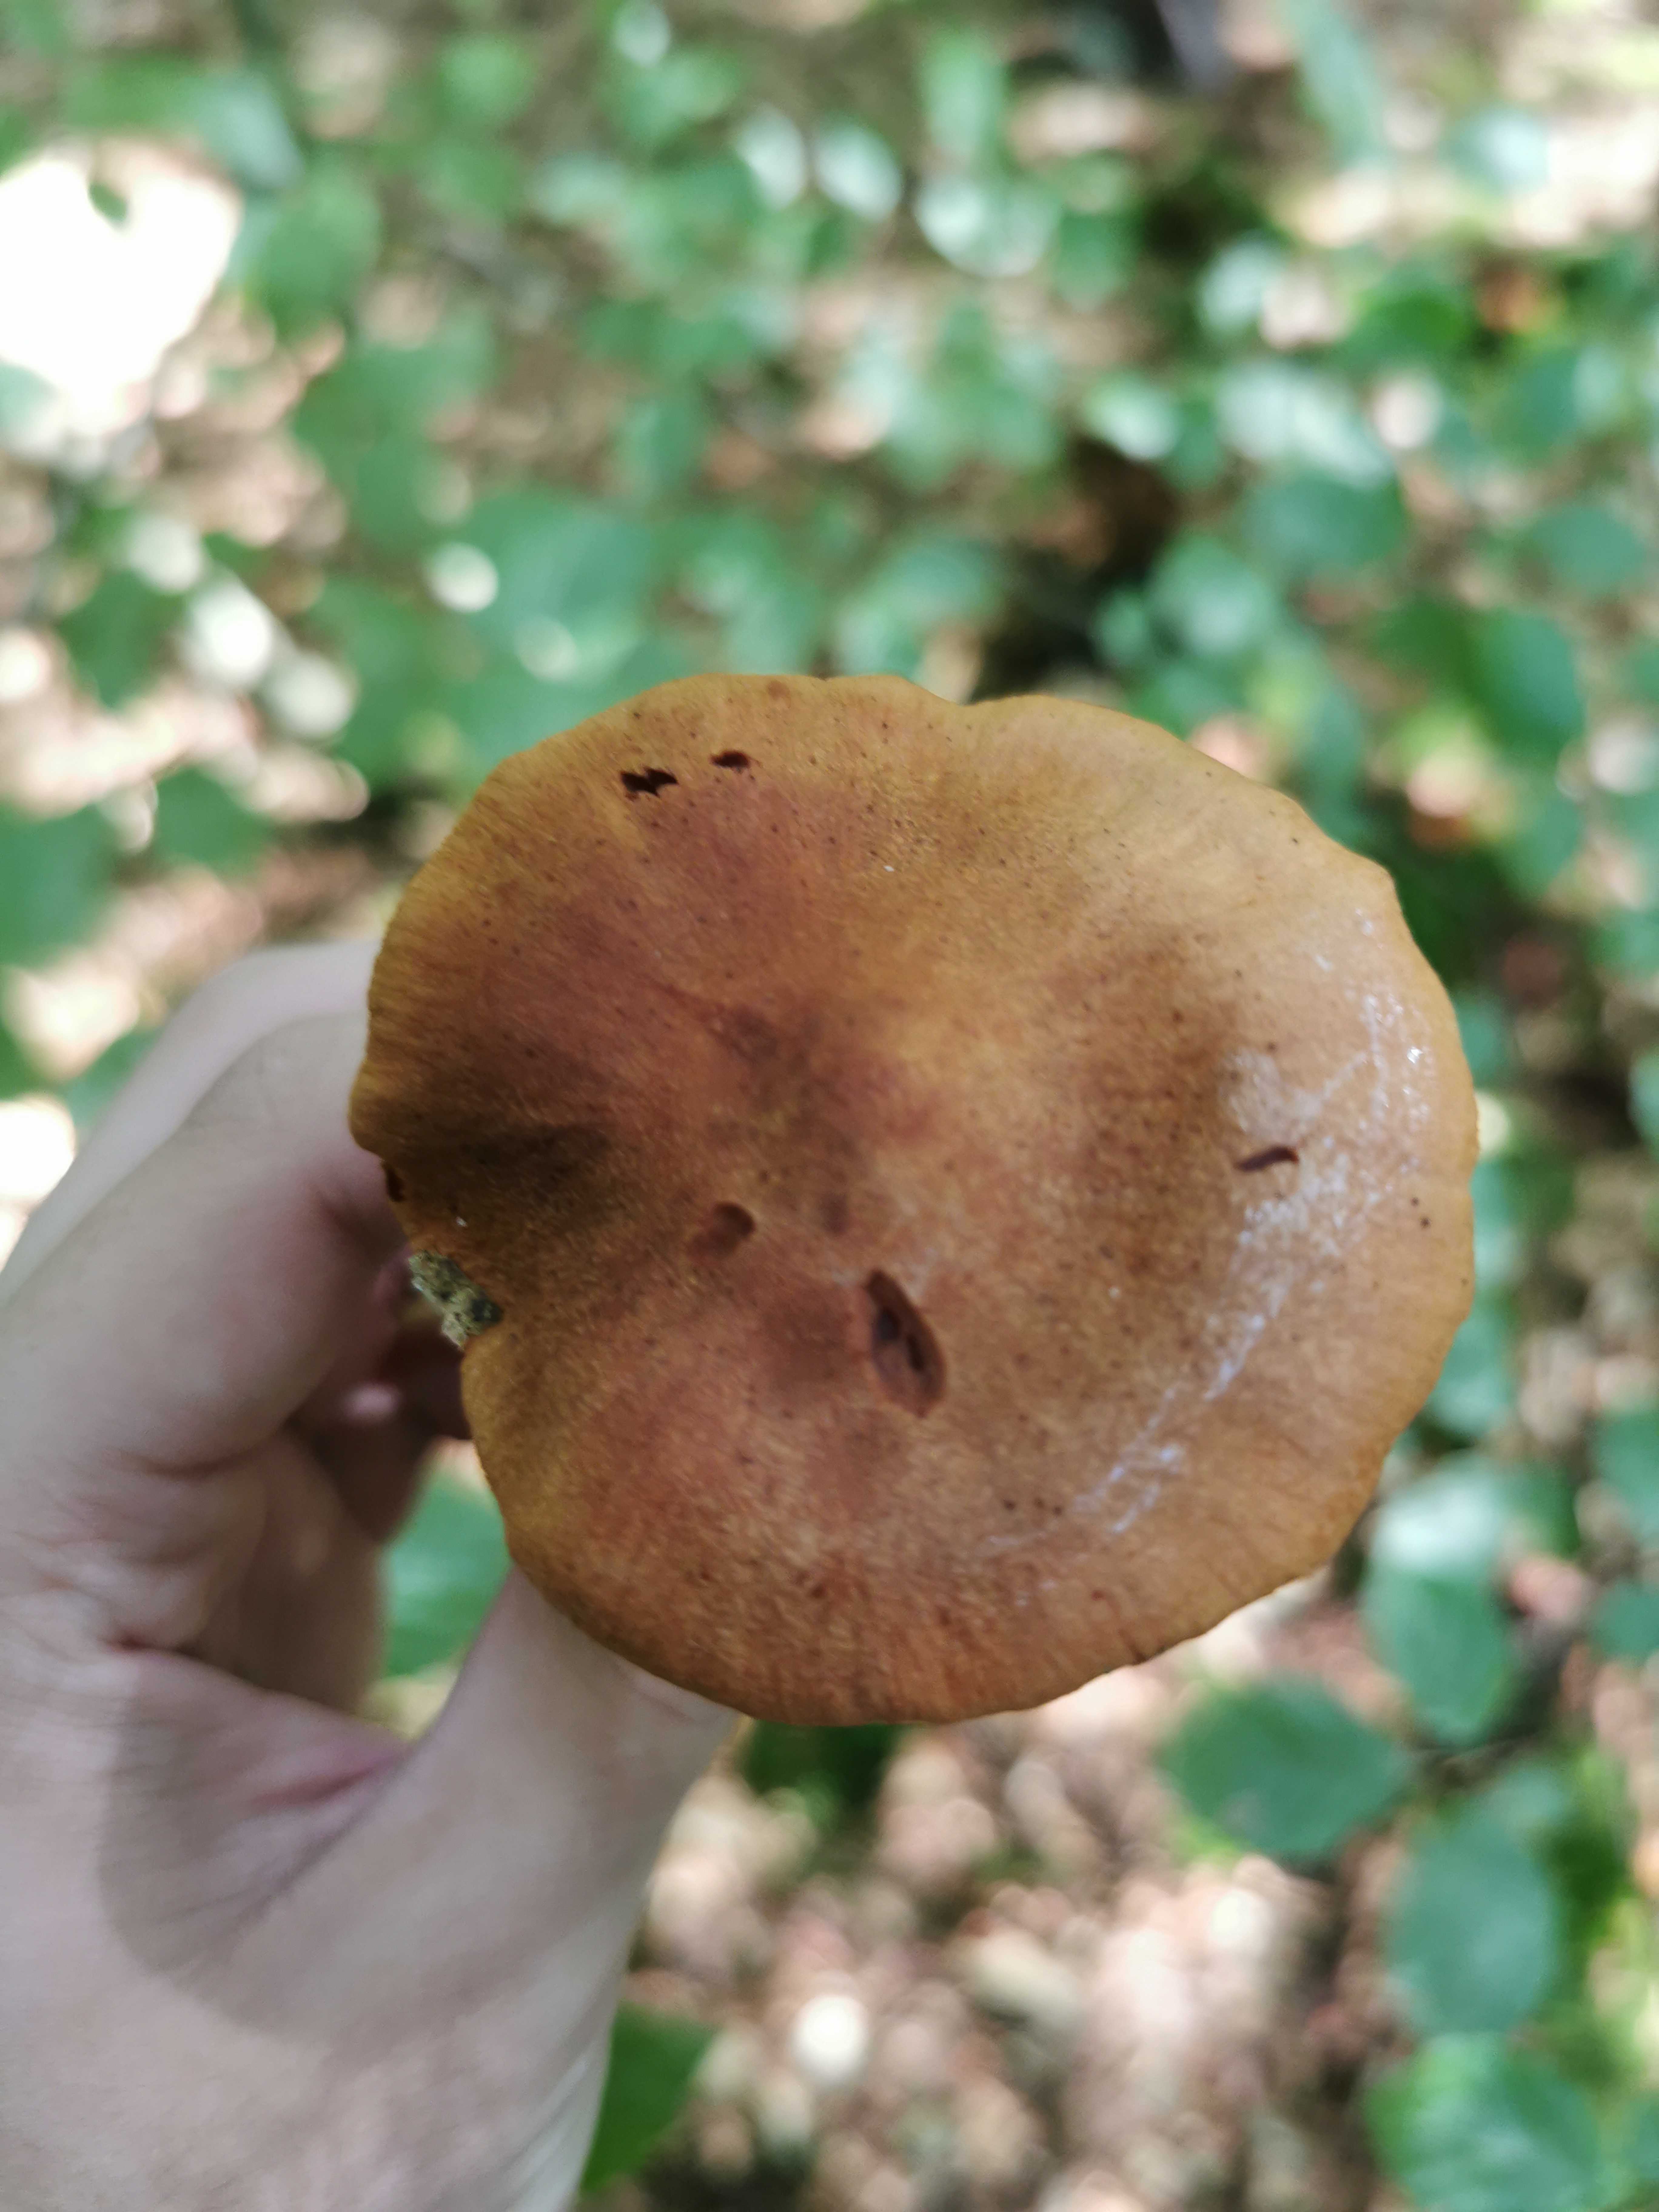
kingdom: Fungi
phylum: Basidiomycota
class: Agaricomycetes
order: Agaricales
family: Cortinariaceae
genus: Cortinarius
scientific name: Cortinarius rubellus
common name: puklet gift-slørhat
